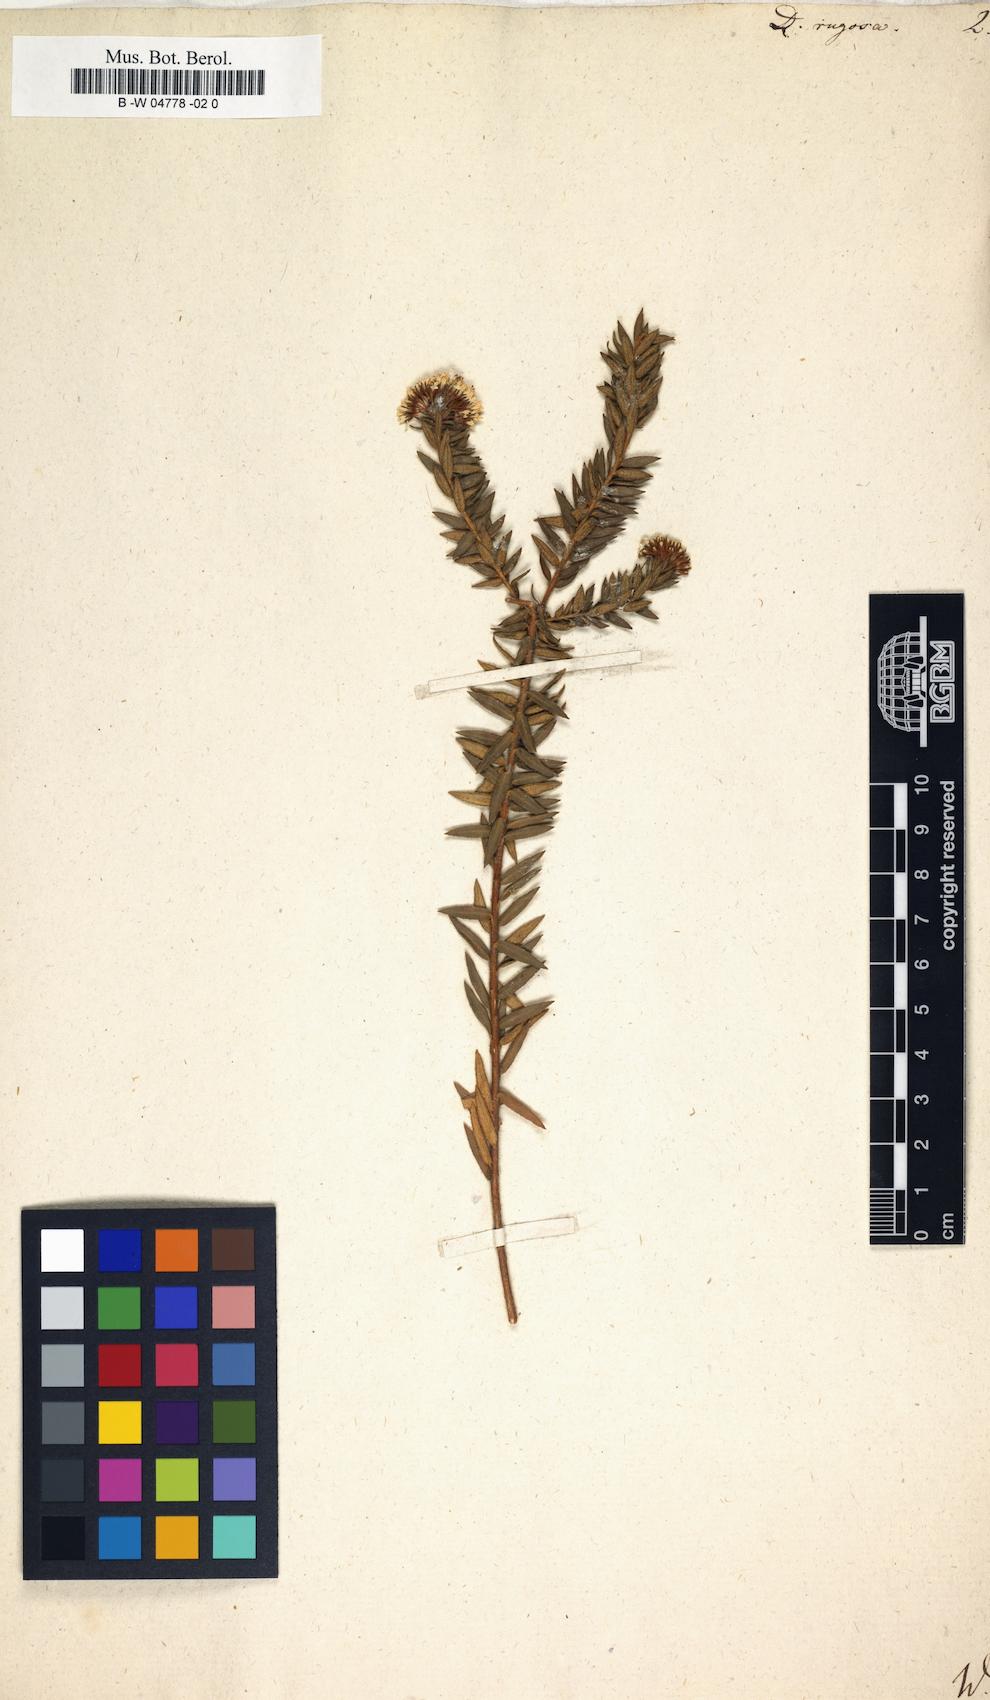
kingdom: Plantae
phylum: Tracheophyta
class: Magnoliopsida
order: Sapindales
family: Rutaceae
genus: Agathosma
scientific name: Agathosma ciliaris
